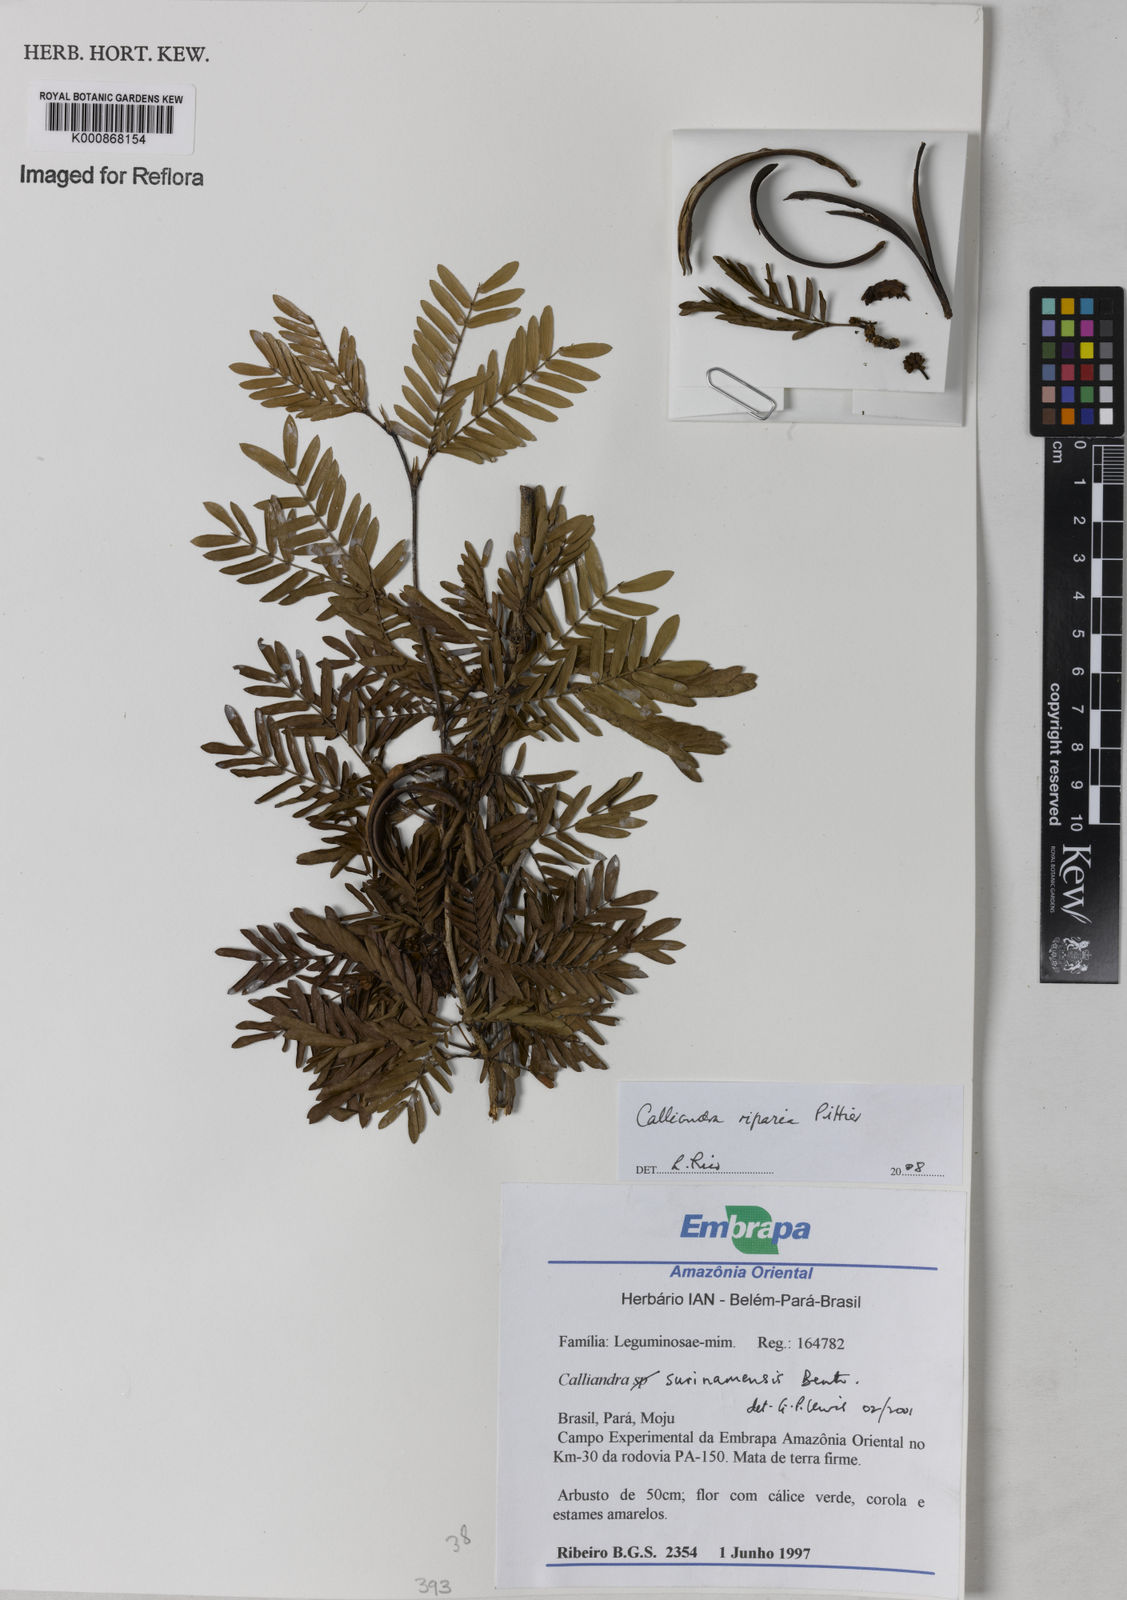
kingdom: Plantae
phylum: Tracheophyta
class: Magnoliopsida
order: Fabales
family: Fabaceae
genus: Calliandra
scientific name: Calliandra riparia
